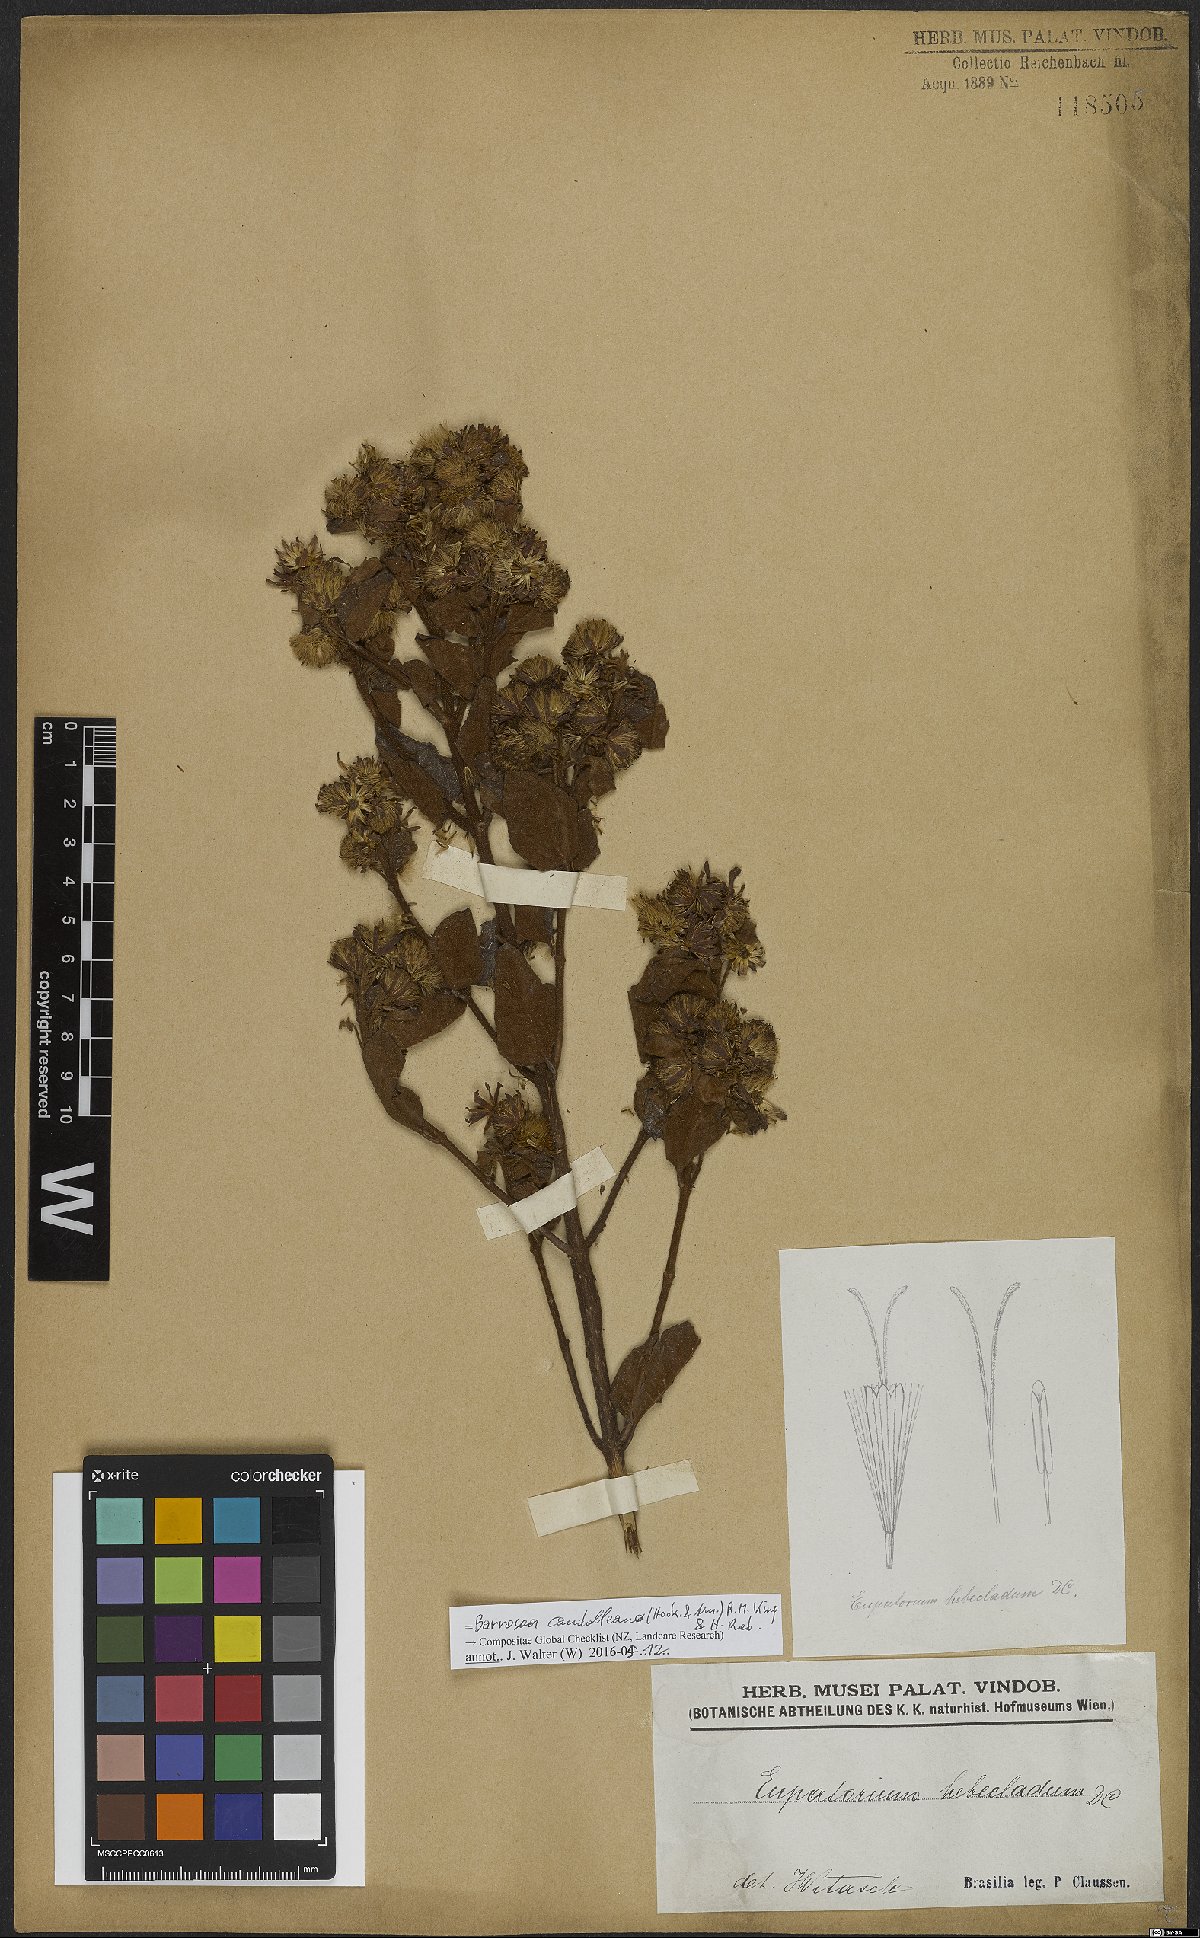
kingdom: Plantae
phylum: Tracheophyta
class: Magnoliopsida
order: Asterales
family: Asteraceae
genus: Barrosoa
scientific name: Barrosoa candolleana
